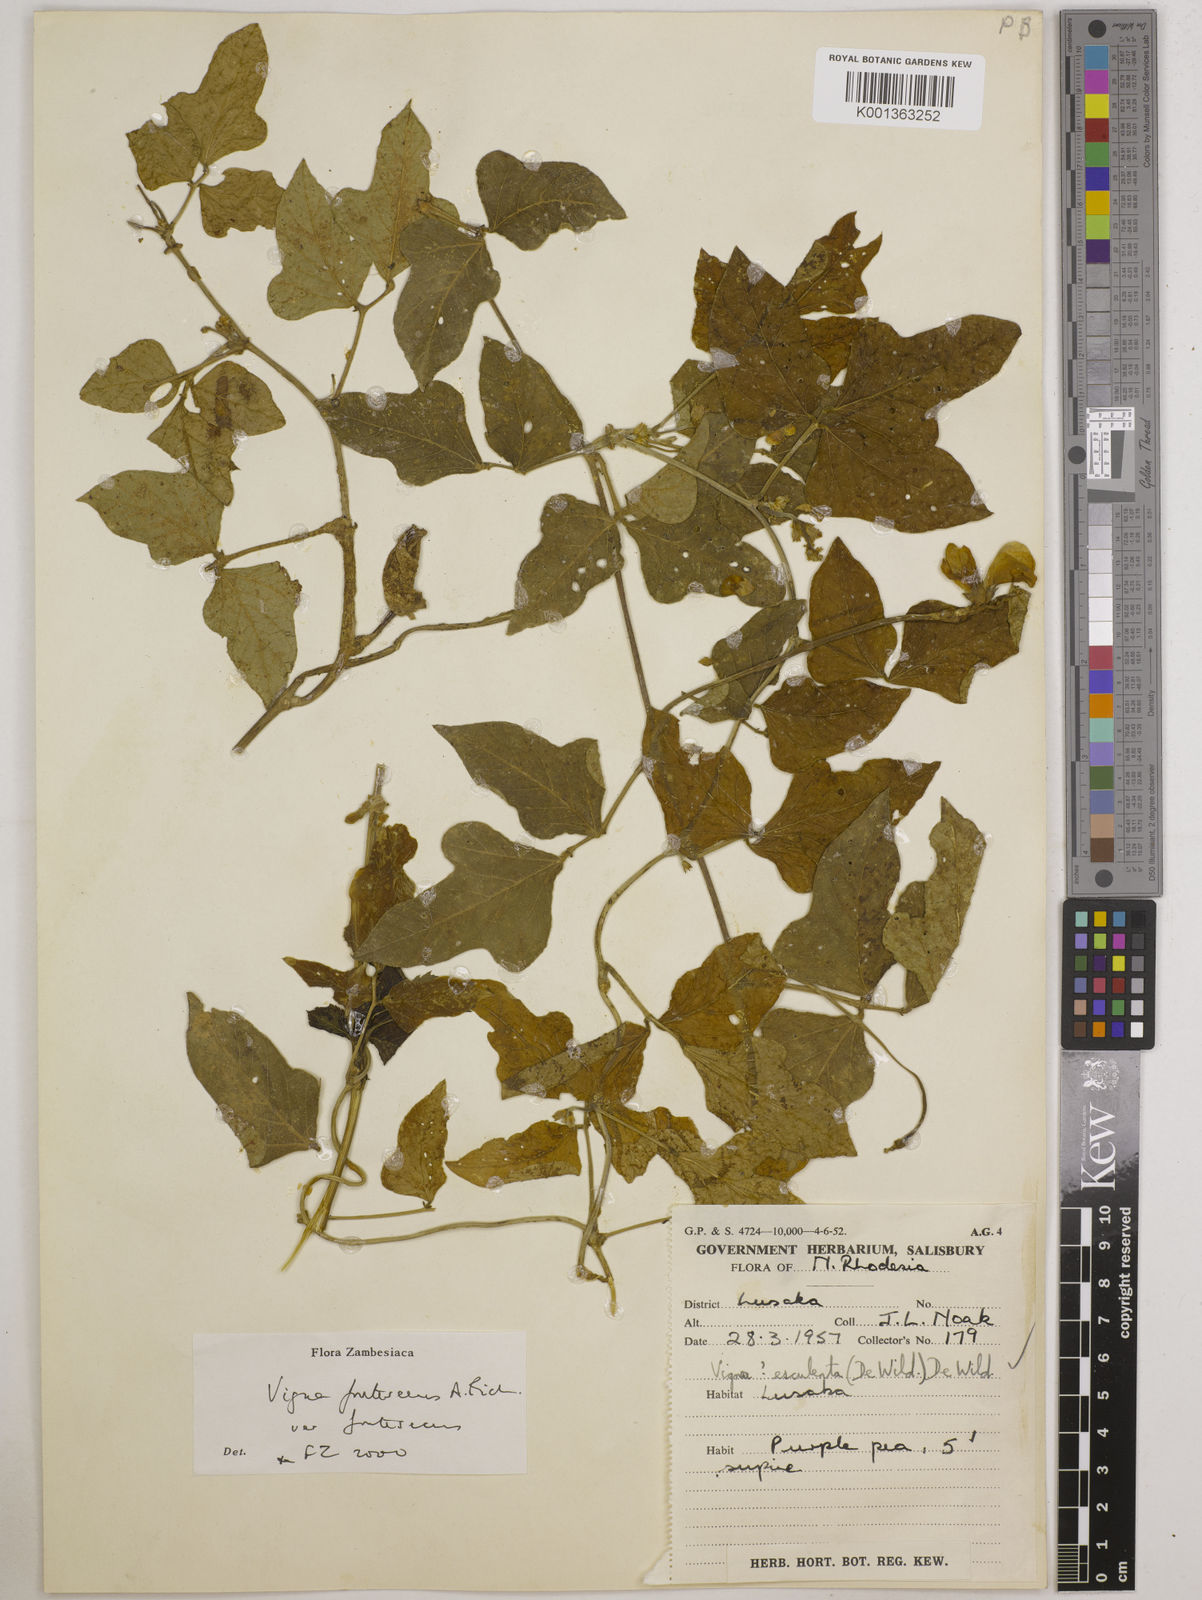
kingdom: Plantae
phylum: Tracheophyta
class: Magnoliopsida
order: Fabales
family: Fabaceae
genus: Vigna
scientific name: Vigna
